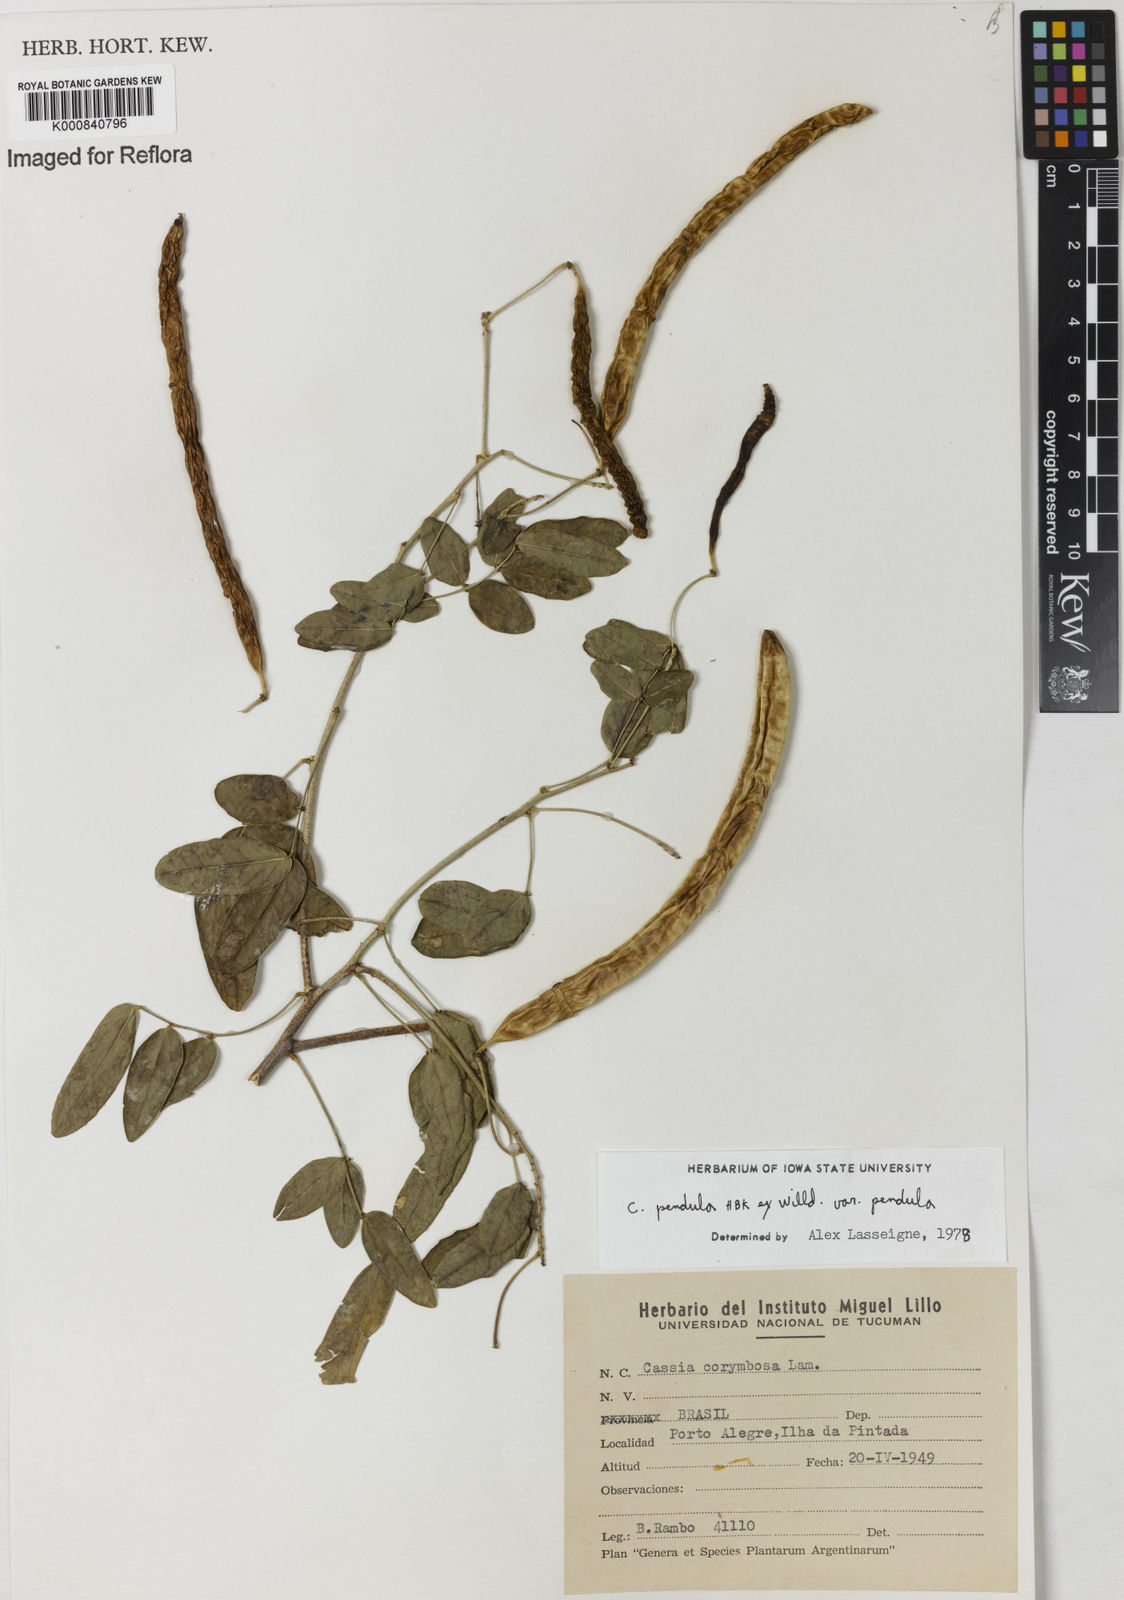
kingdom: Plantae
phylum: Tracheophyta
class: Magnoliopsida
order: Fabales
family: Fabaceae
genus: Senna
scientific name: Senna pendula
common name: Easter cassia
